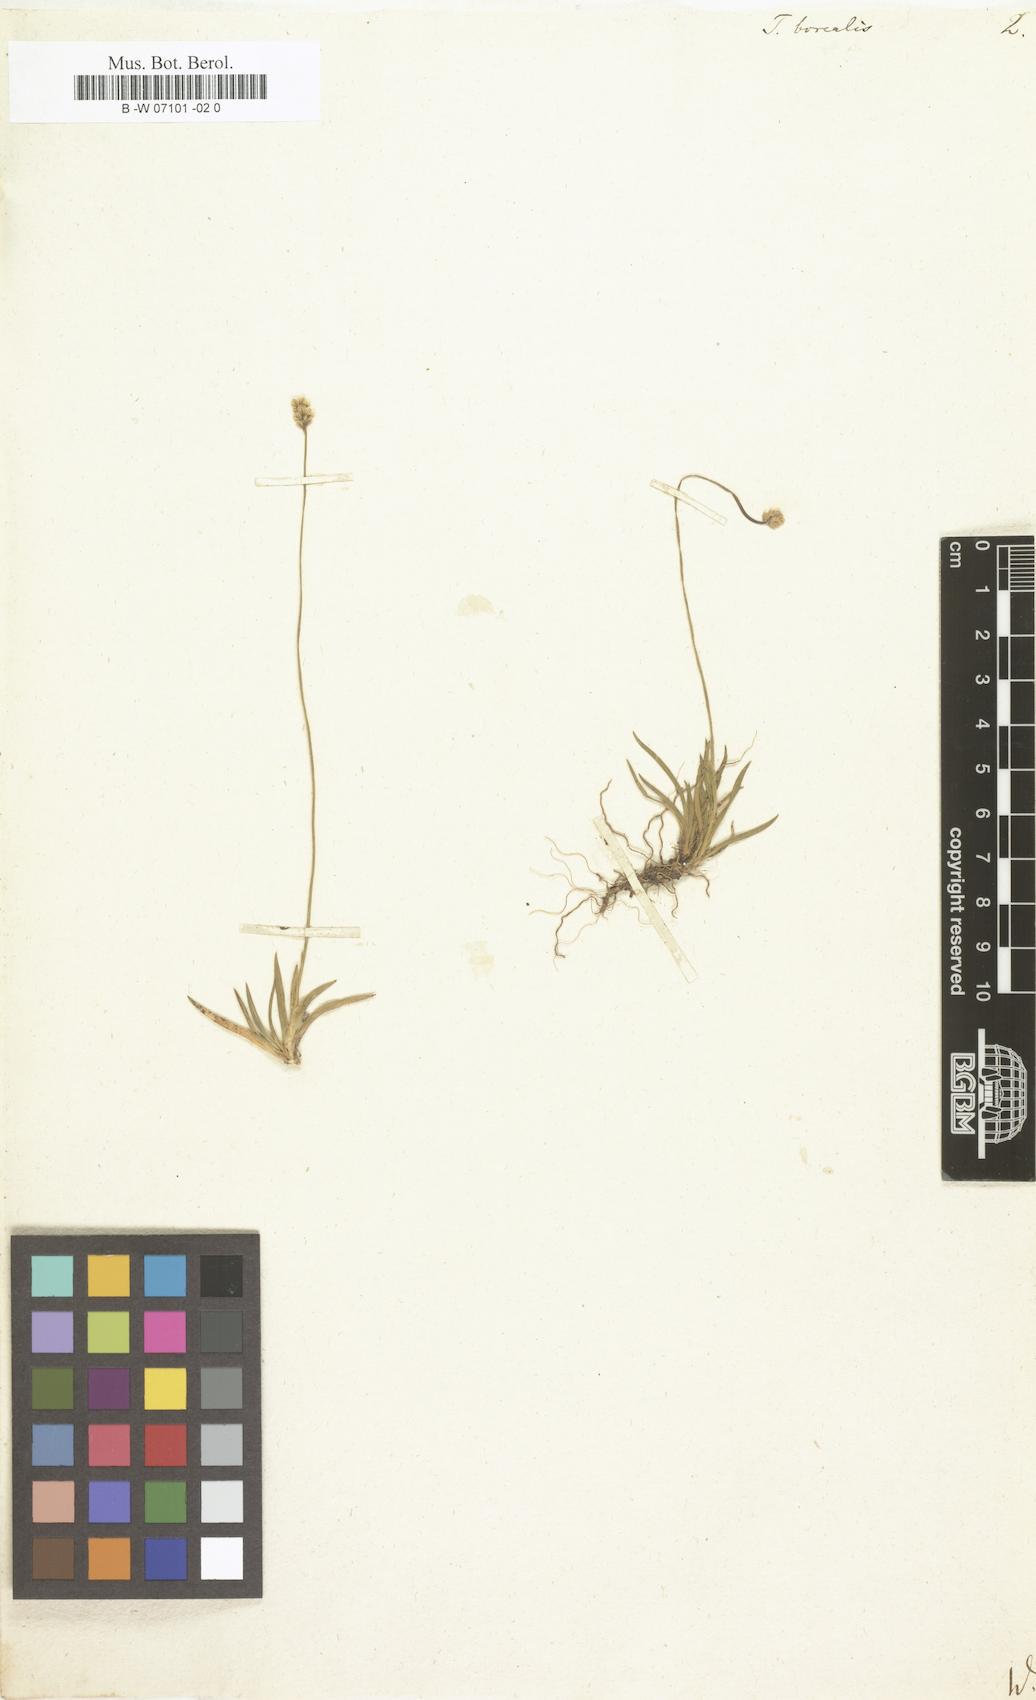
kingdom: Plantae
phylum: Tracheophyta
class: Liliopsida
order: Alismatales
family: Tofieldiaceae
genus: Tofieldia
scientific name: Tofieldia pusilla
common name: Scottish false asphodel
